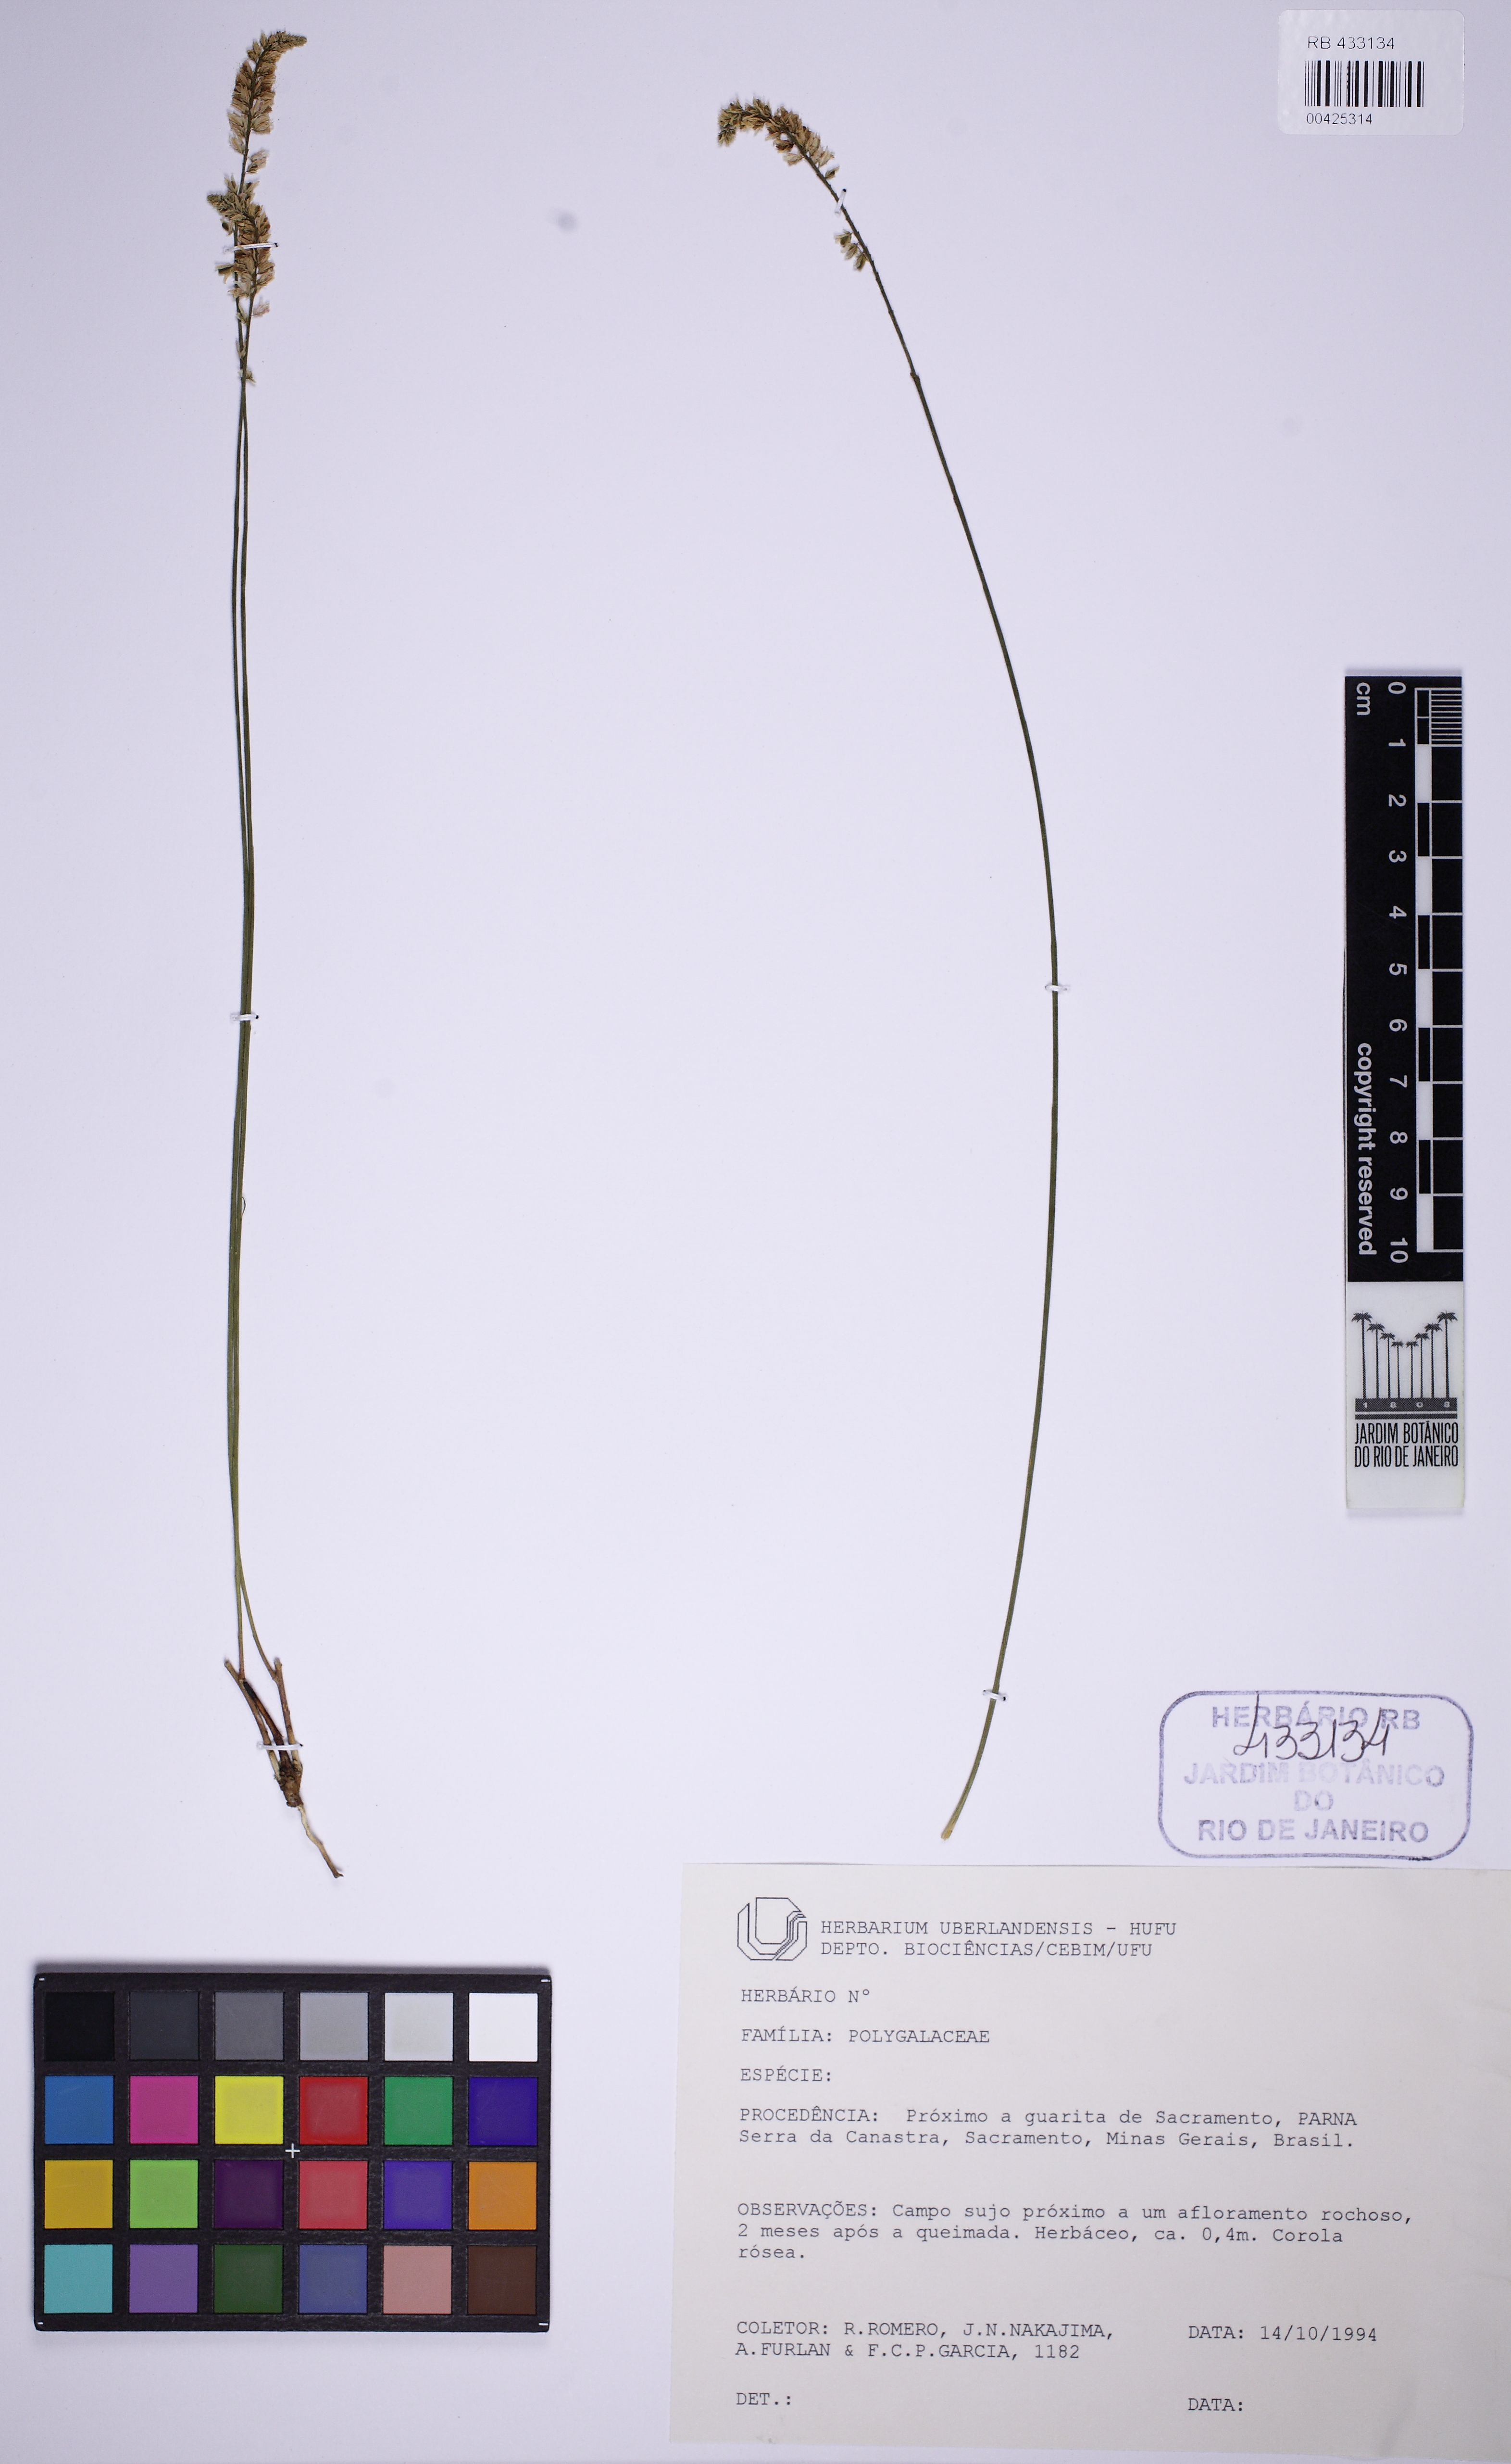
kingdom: Plantae
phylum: Tracheophyta
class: Magnoliopsida
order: Fabales
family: Polygalaceae
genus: Polygala
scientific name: Polygala monosperma
